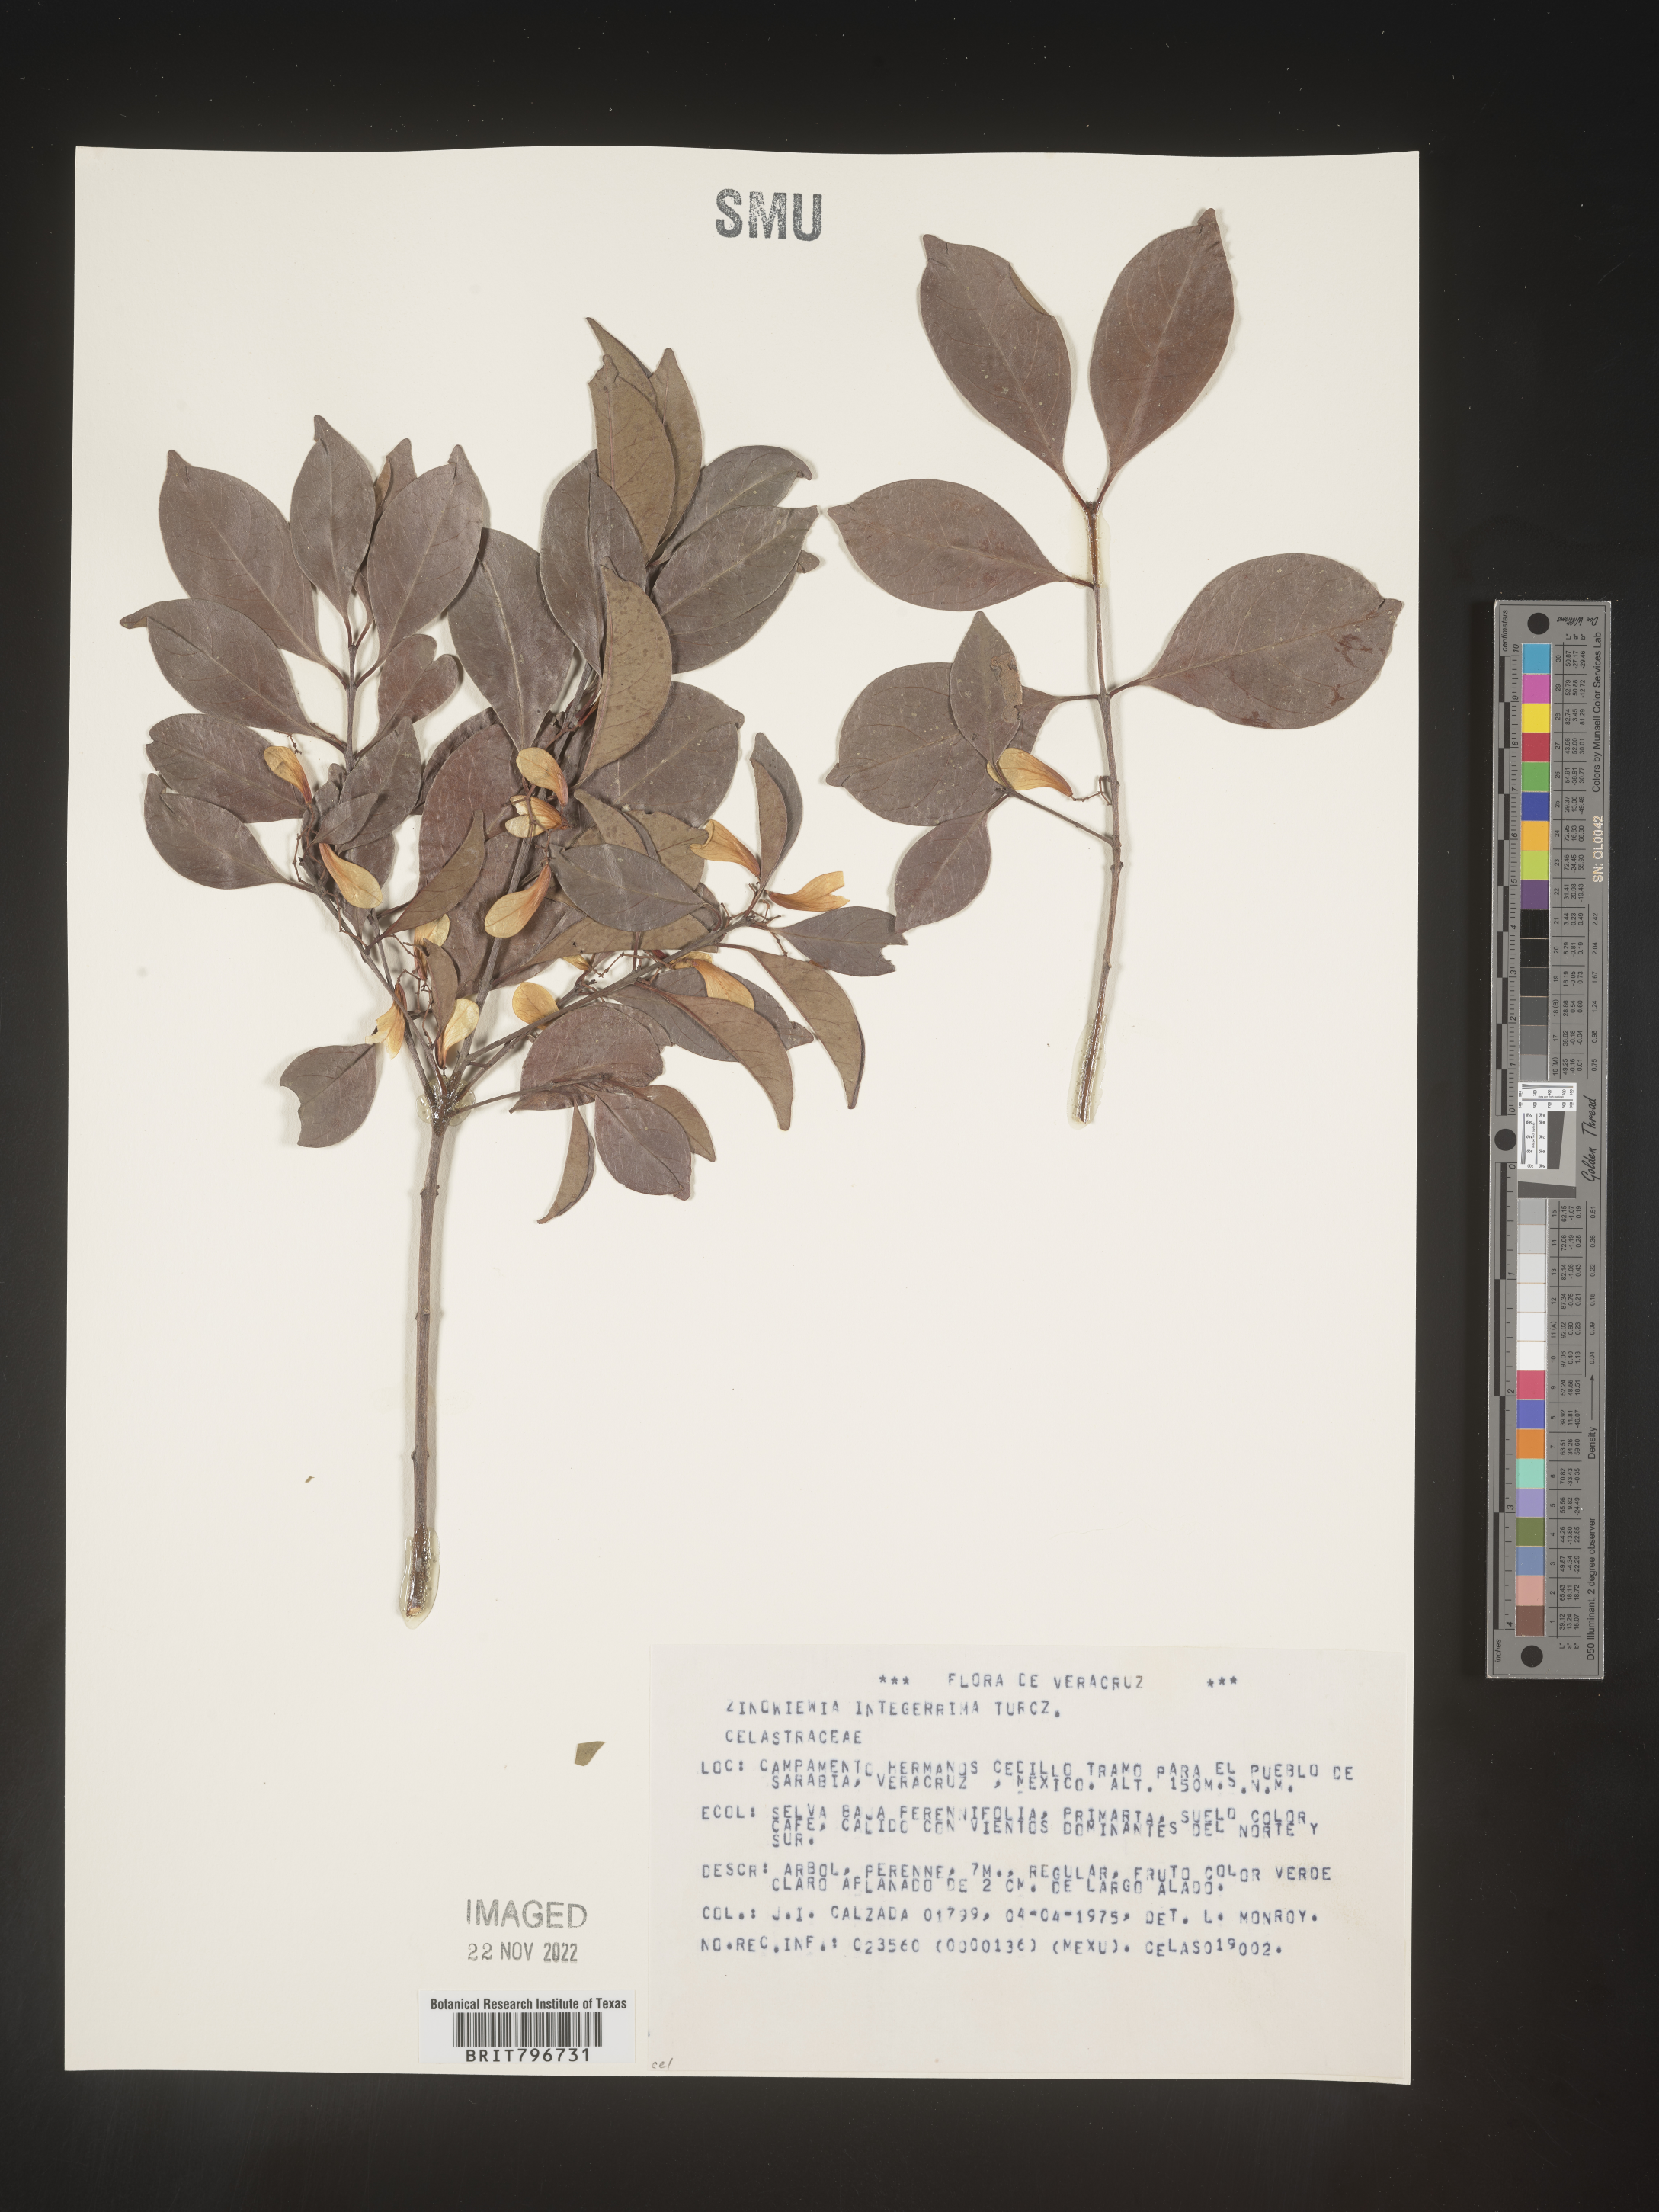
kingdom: Plantae
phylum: Tracheophyta
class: Magnoliopsida
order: Celastrales
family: Celastraceae
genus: Zinowiewia
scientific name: Zinowiewia
